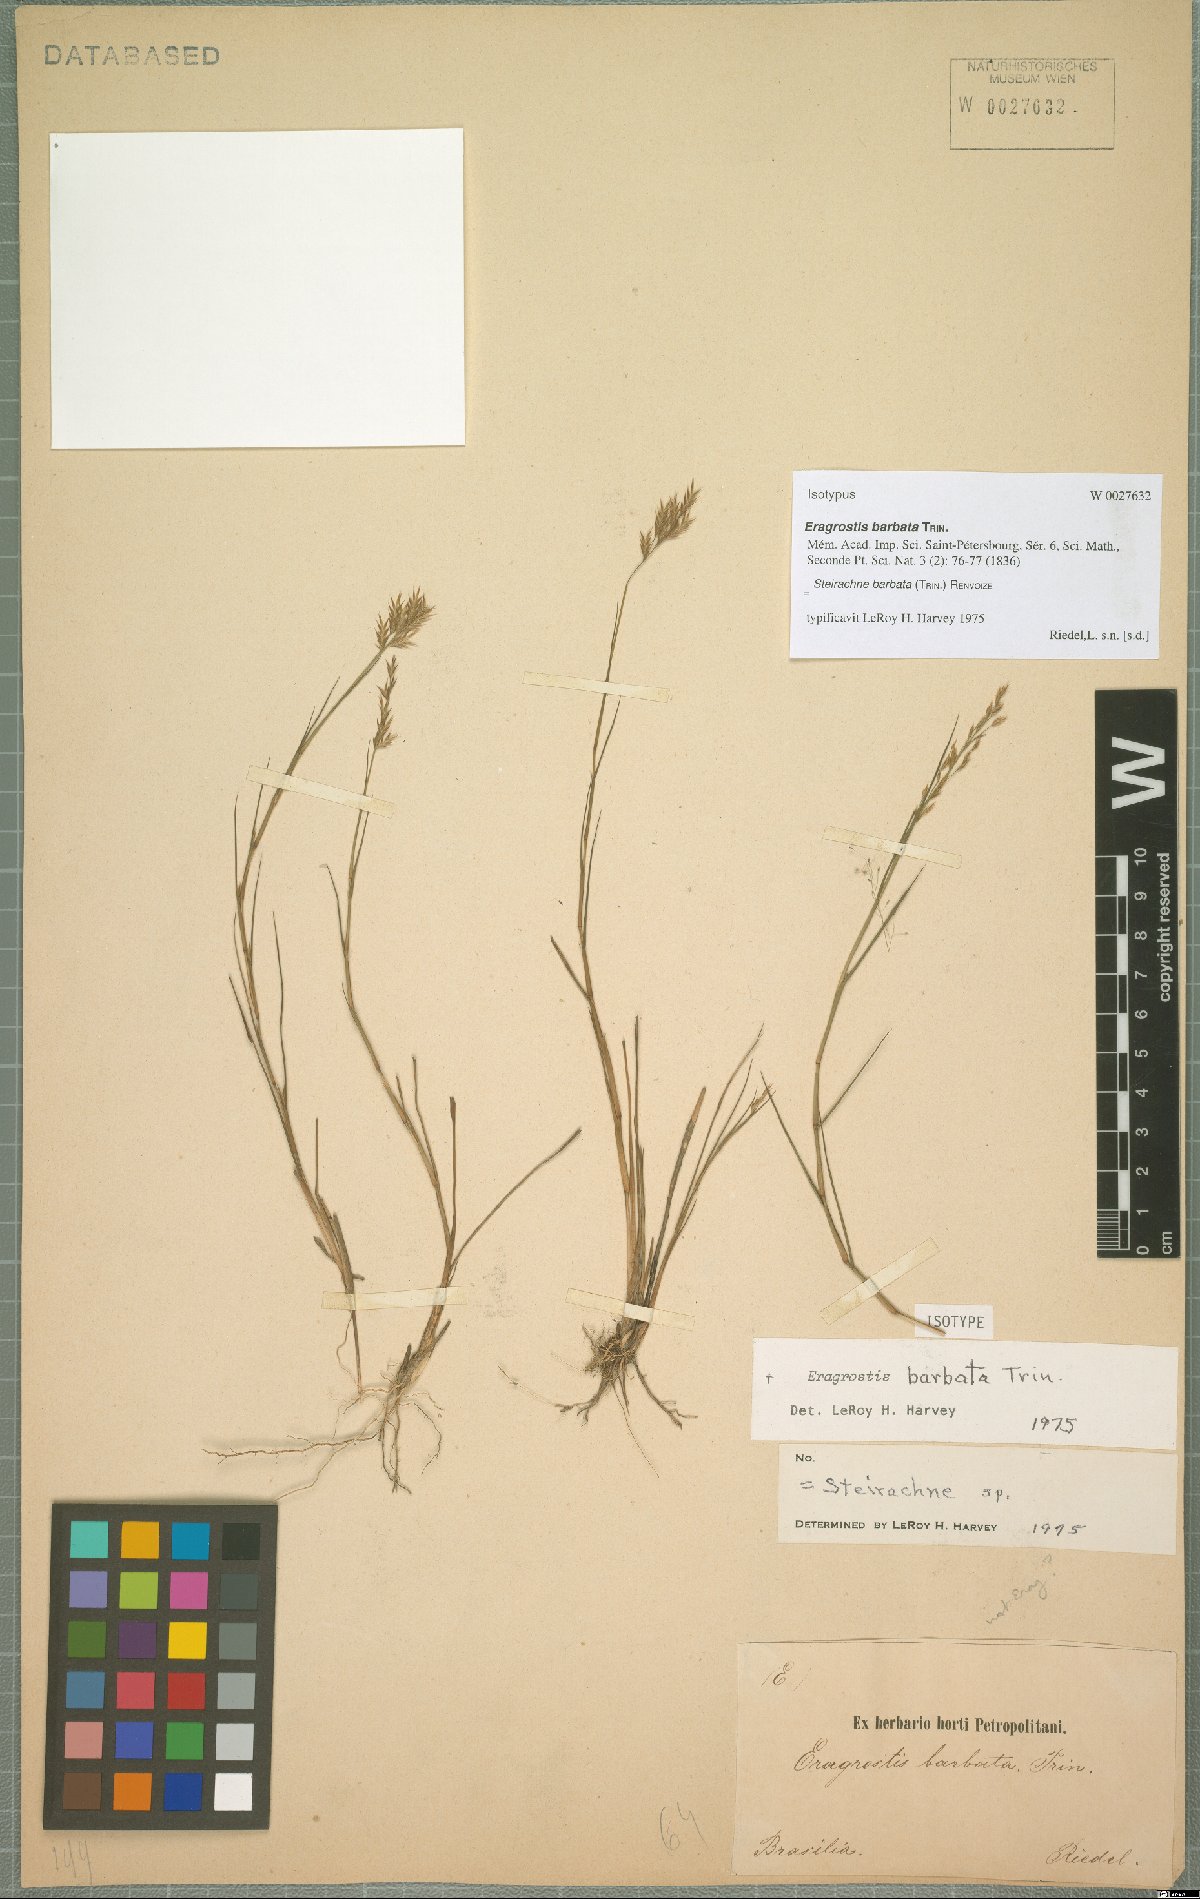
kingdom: Plantae
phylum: Tracheophyta
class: Liliopsida
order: Poales
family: Poaceae
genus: Steirachne
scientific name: Steirachne barbata
